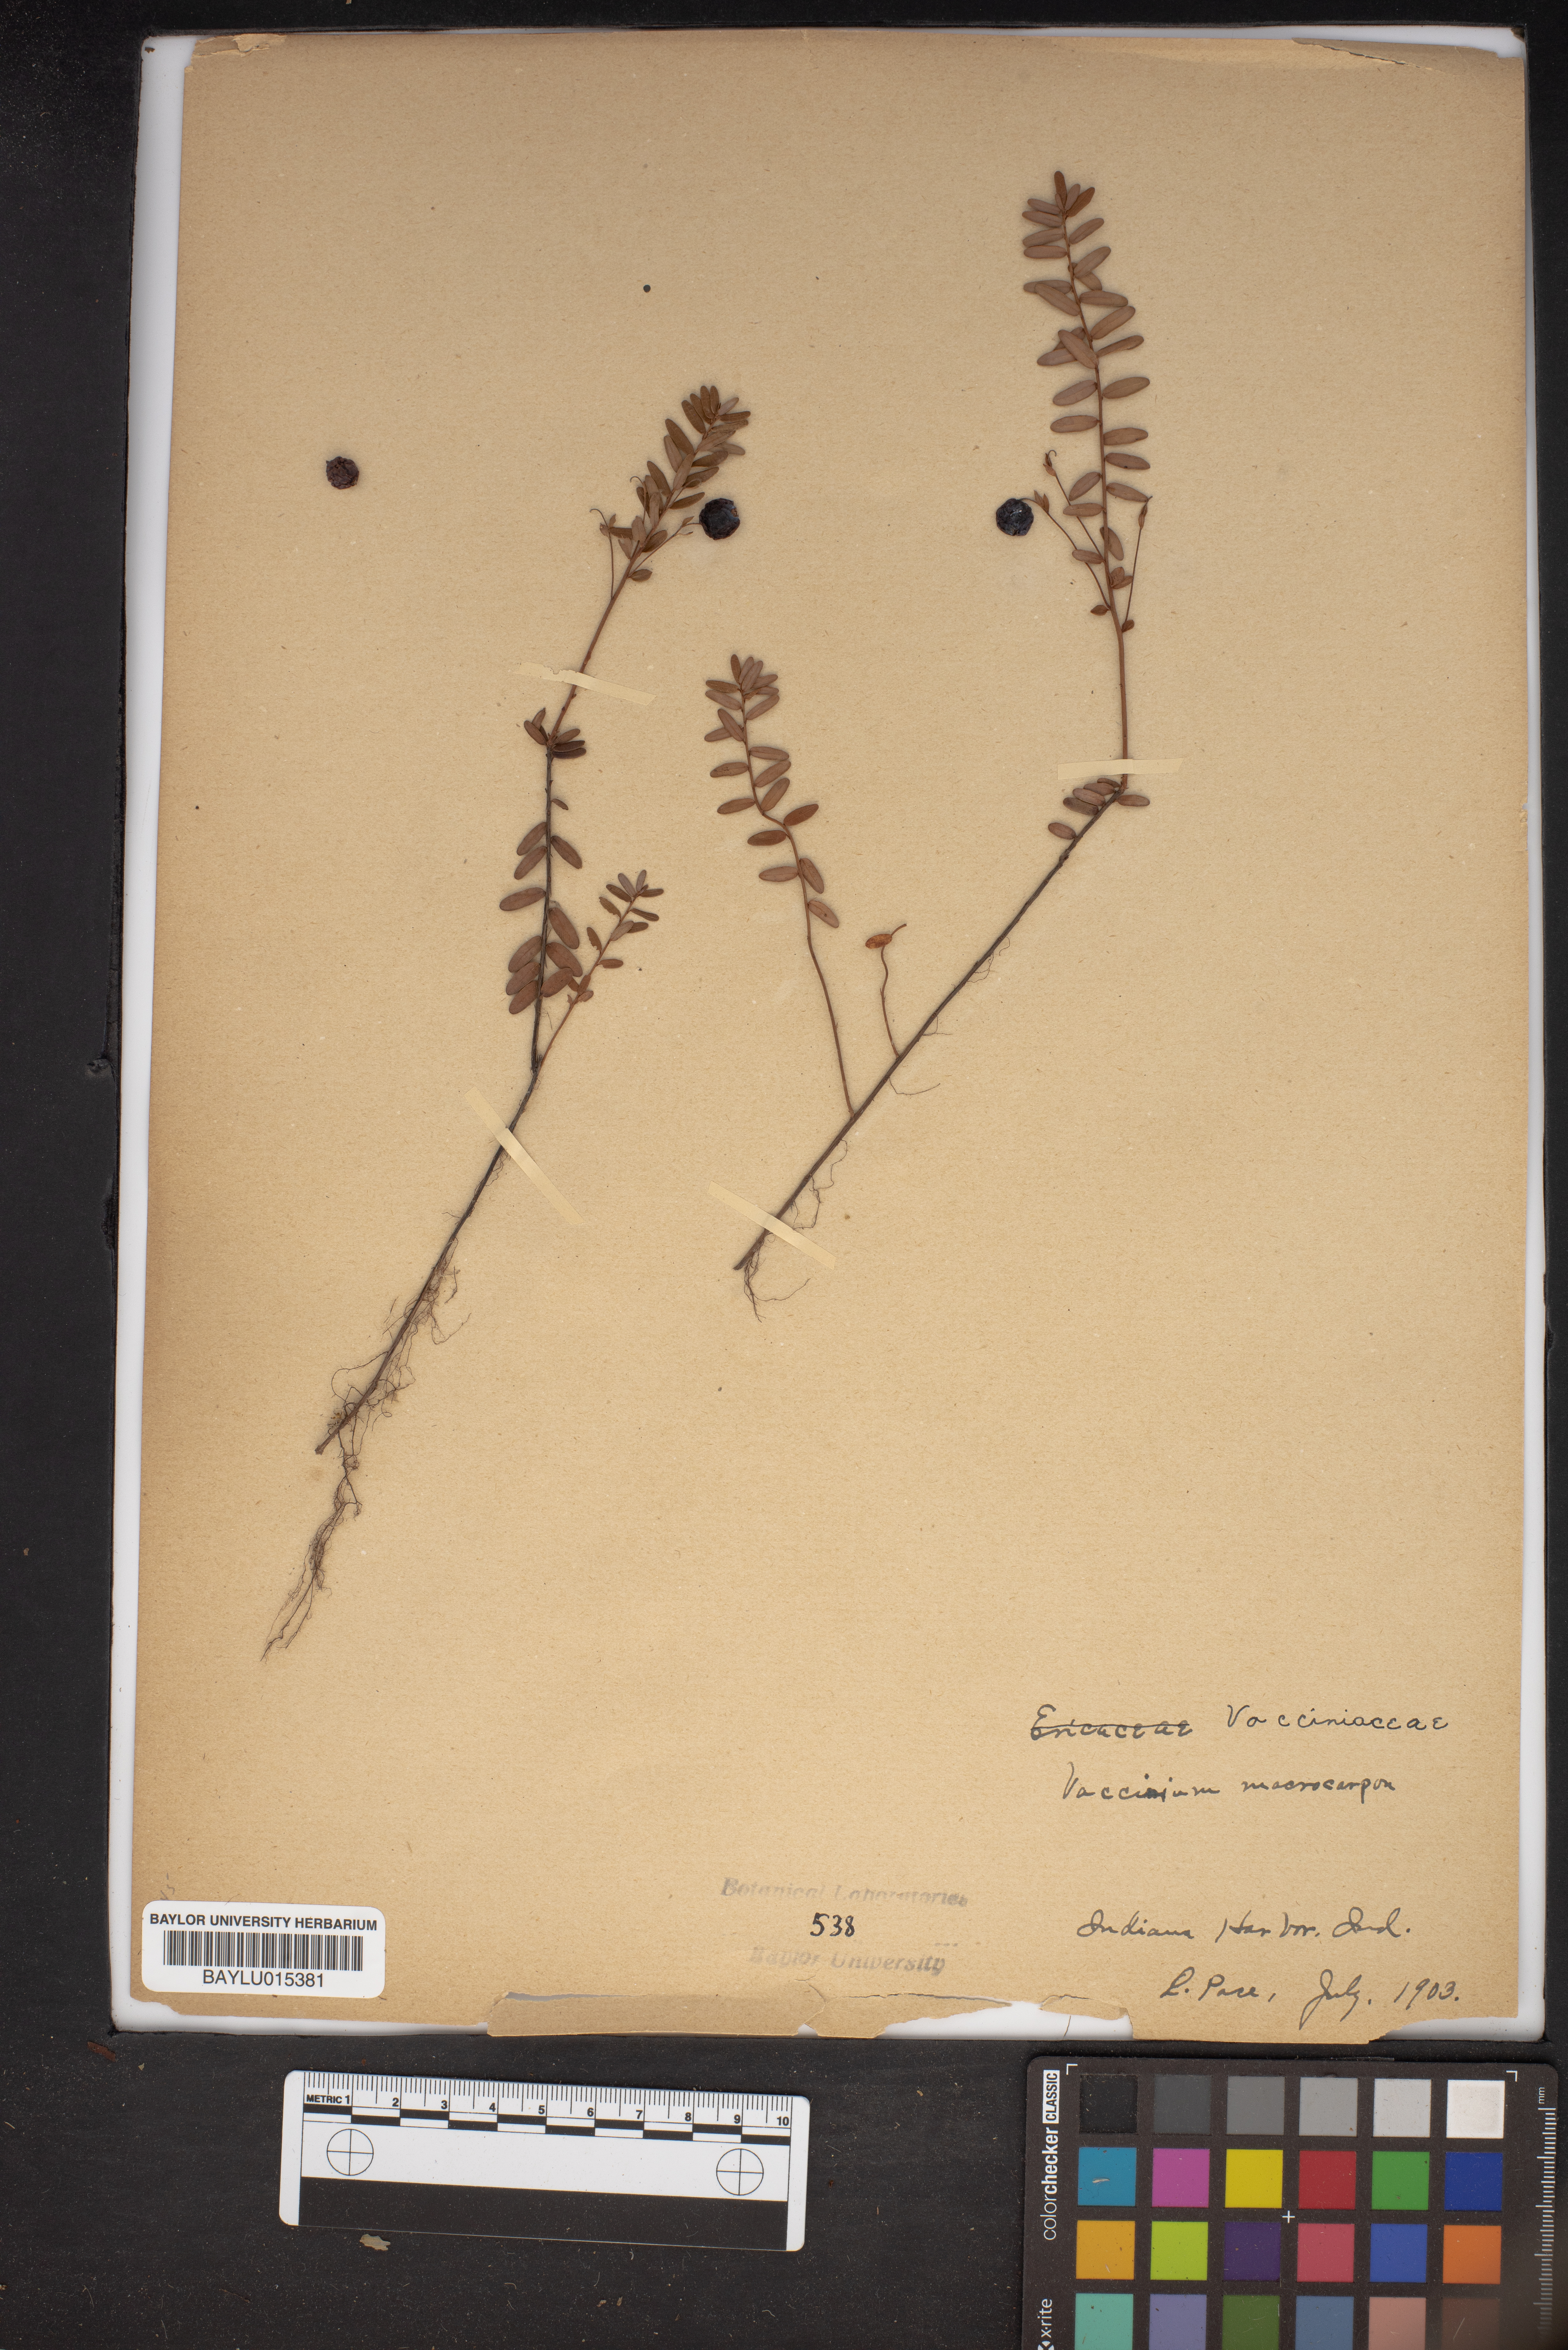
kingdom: Plantae
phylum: Tracheophyta
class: Magnoliopsida
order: Ericales
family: Ericaceae
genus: Vaccinium
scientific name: Vaccinium macrocarpon
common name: American cranberry
